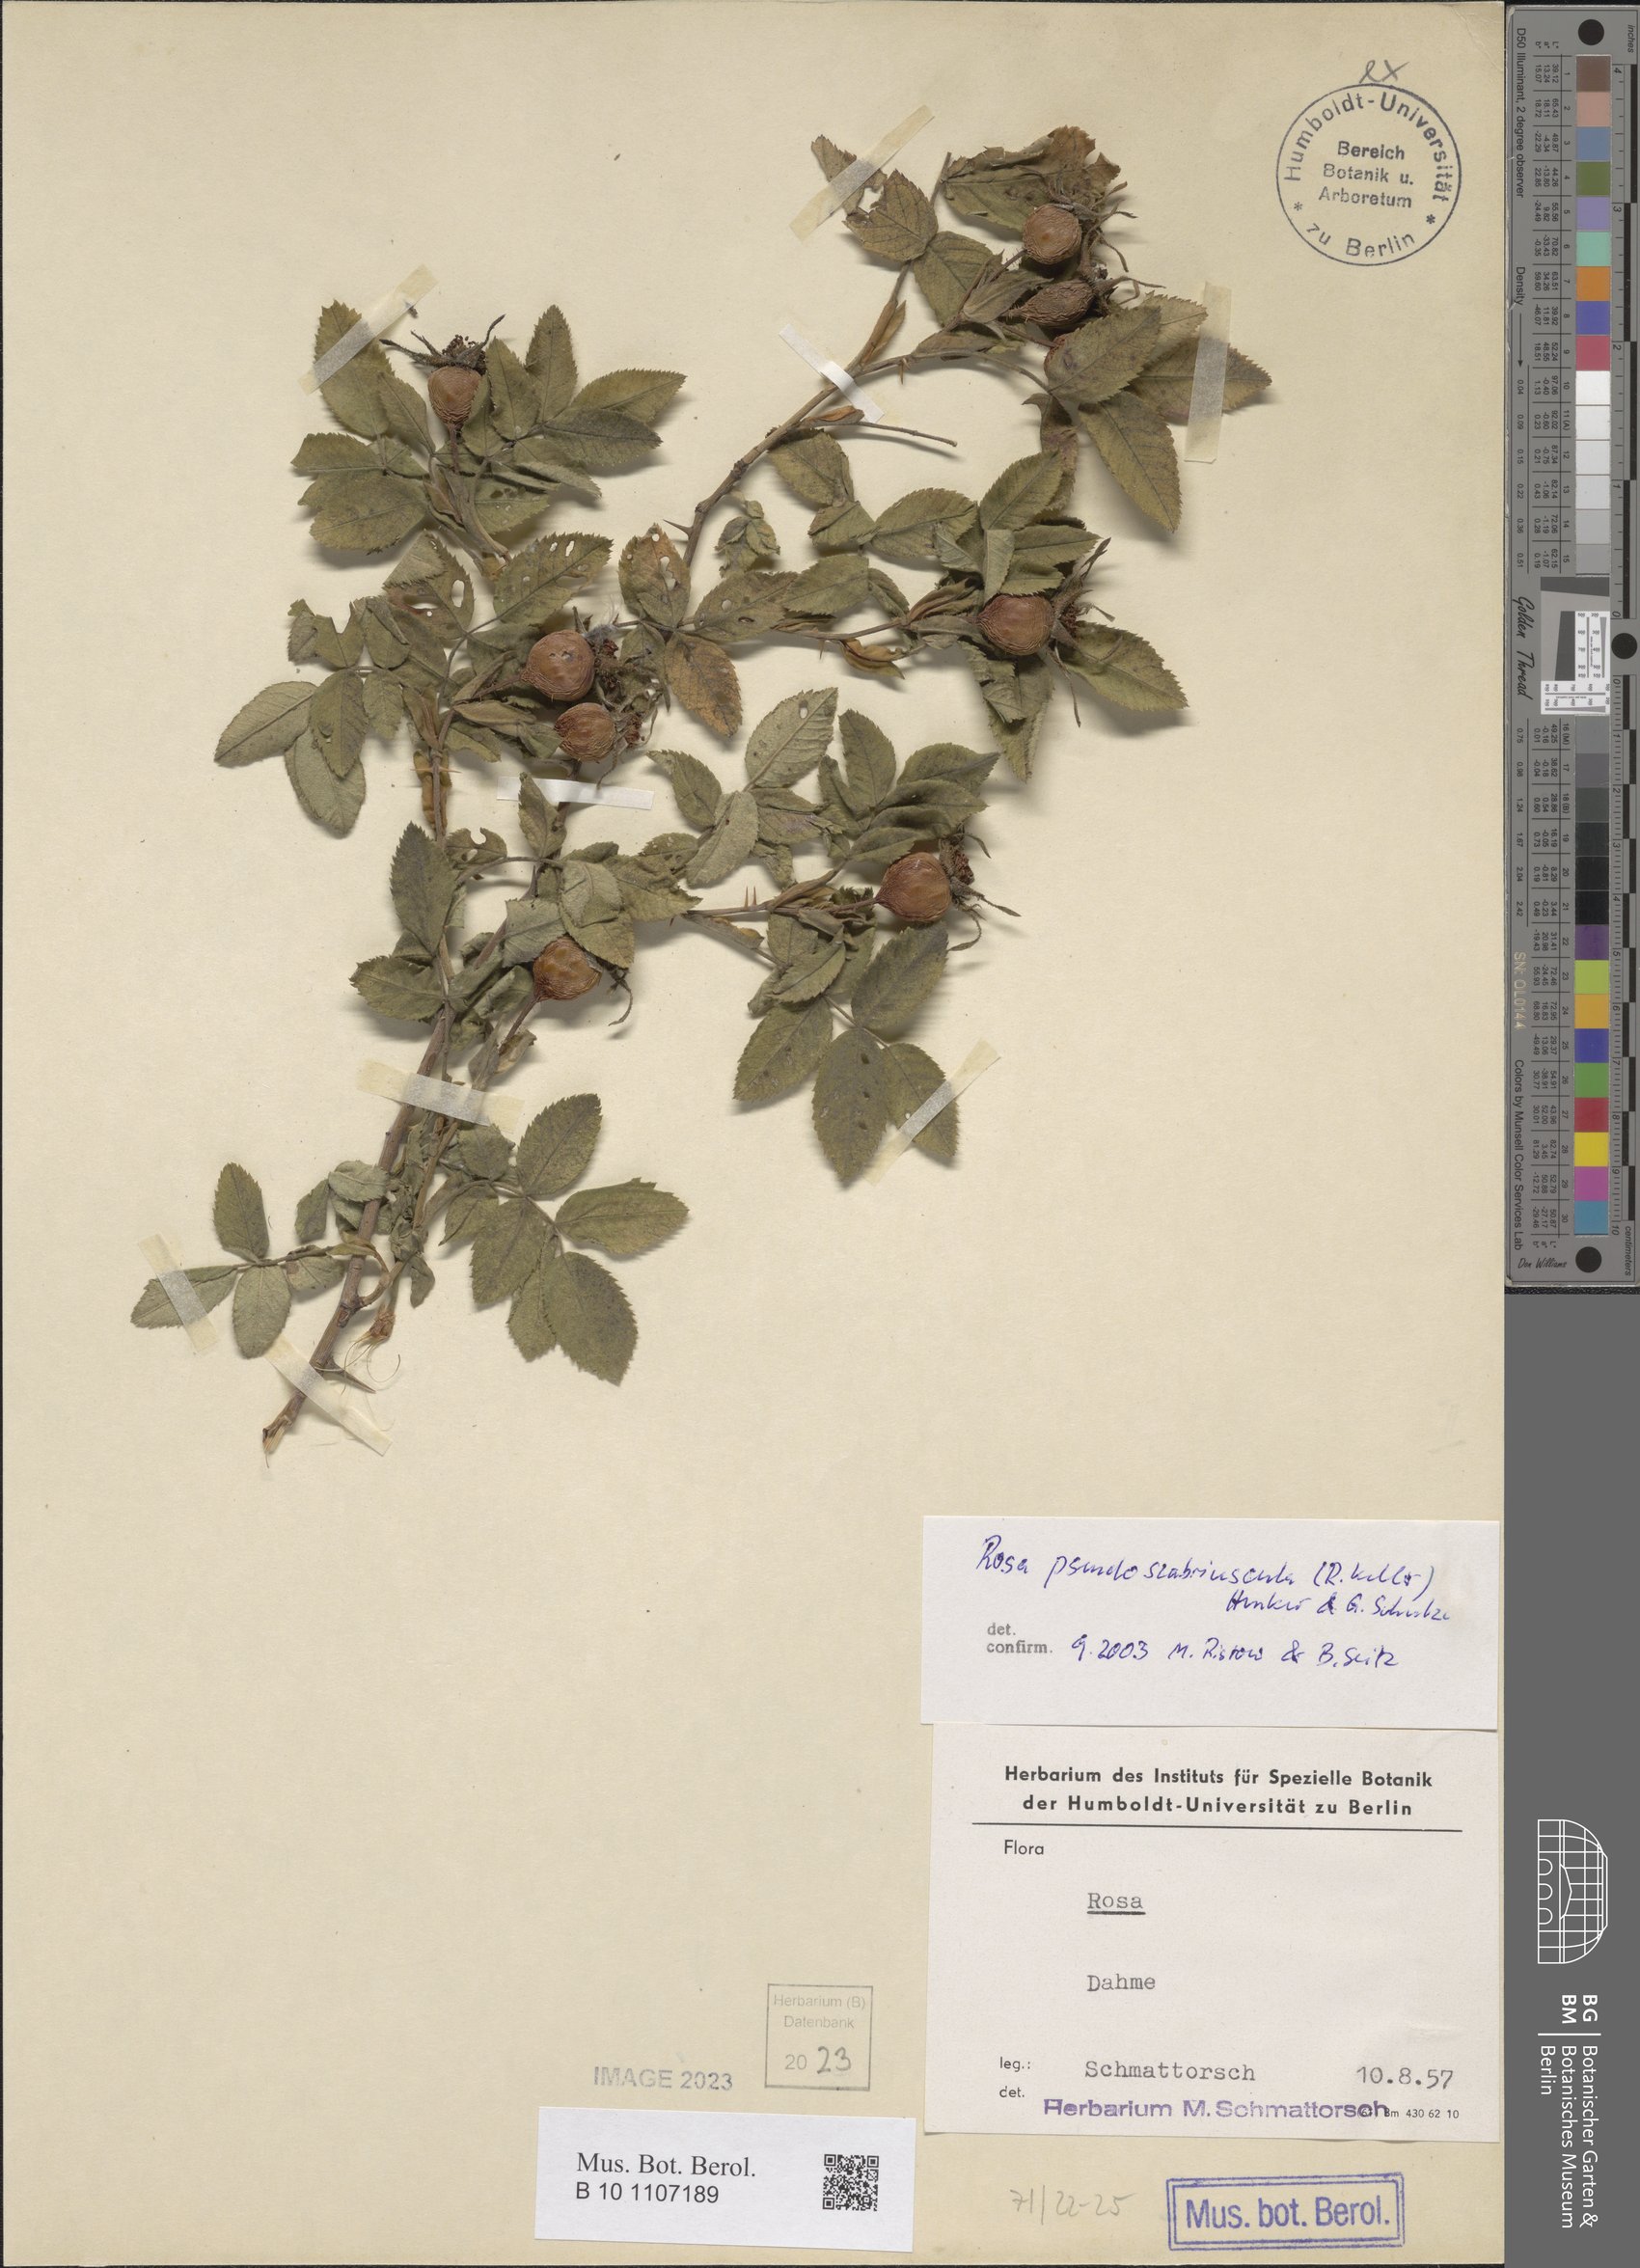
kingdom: Plantae
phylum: Tracheophyta
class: Magnoliopsida
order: Rosales
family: Rosaceae
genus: Rosa
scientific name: Rosa pseudoscabriuscula
